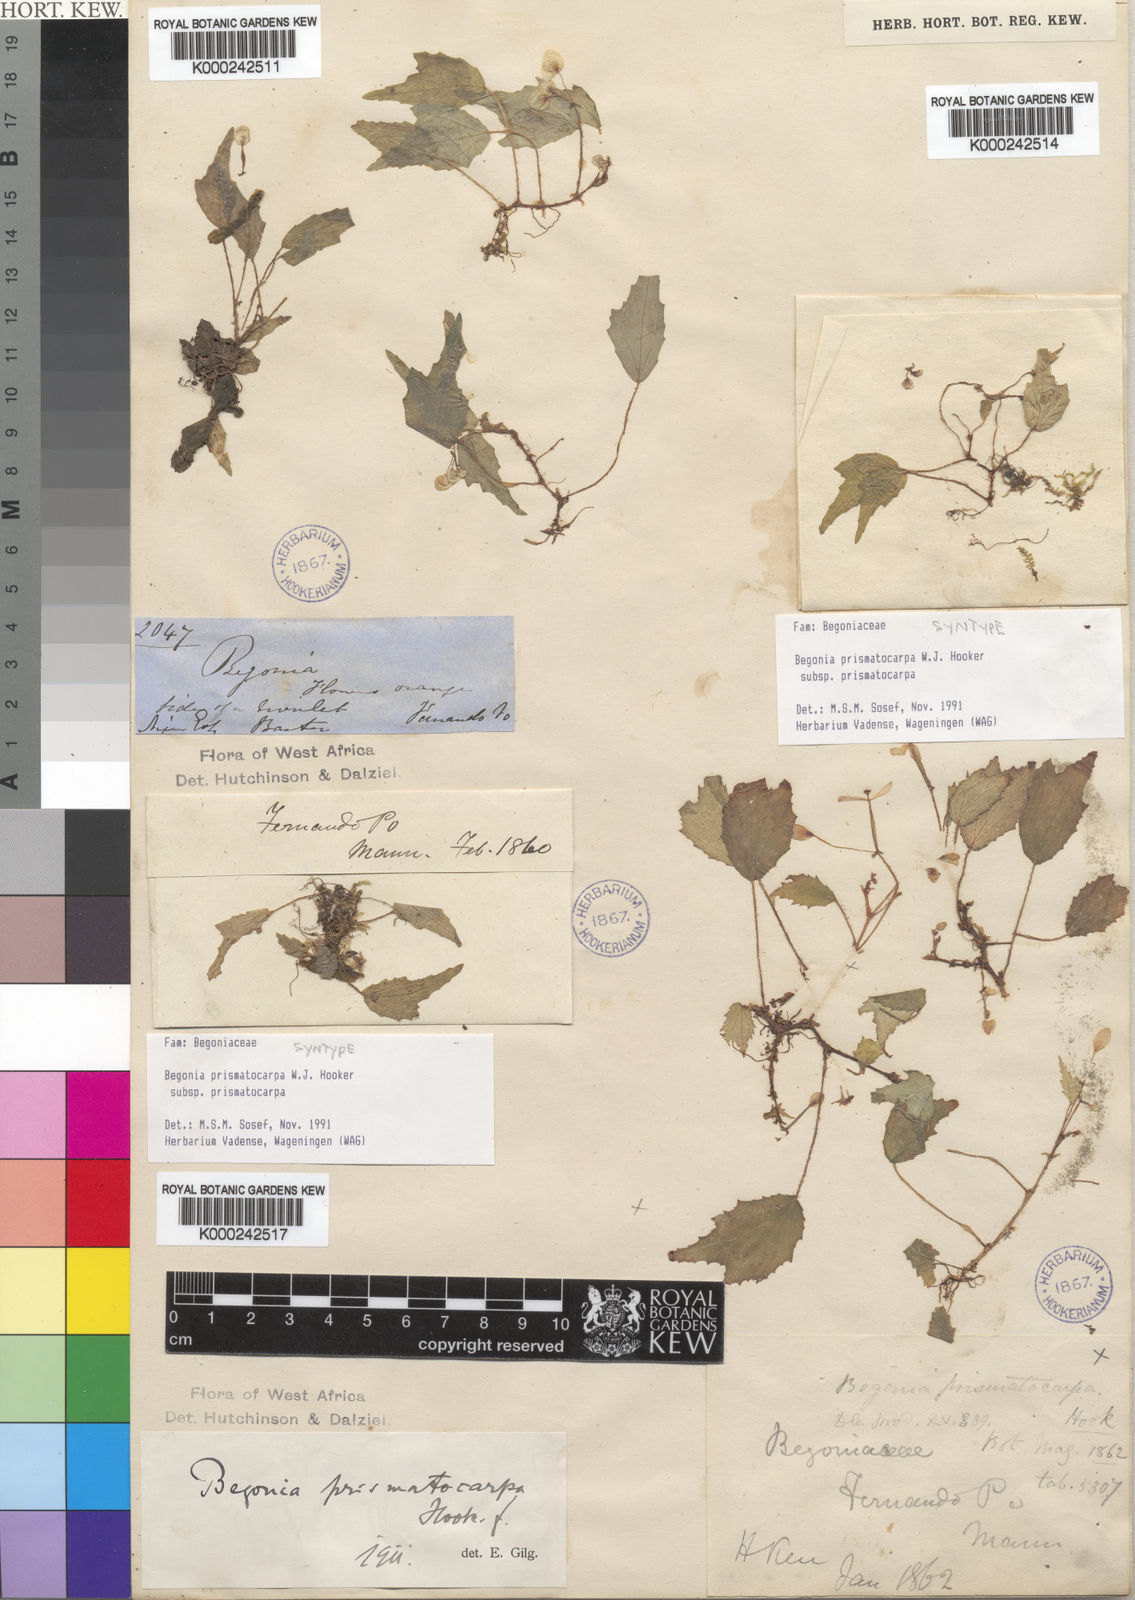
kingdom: Plantae
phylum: Tracheophyta
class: Magnoliopsida
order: Cucurbitales
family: Begoniaceae
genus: Begonia
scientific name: Begonia prismatocarpa
